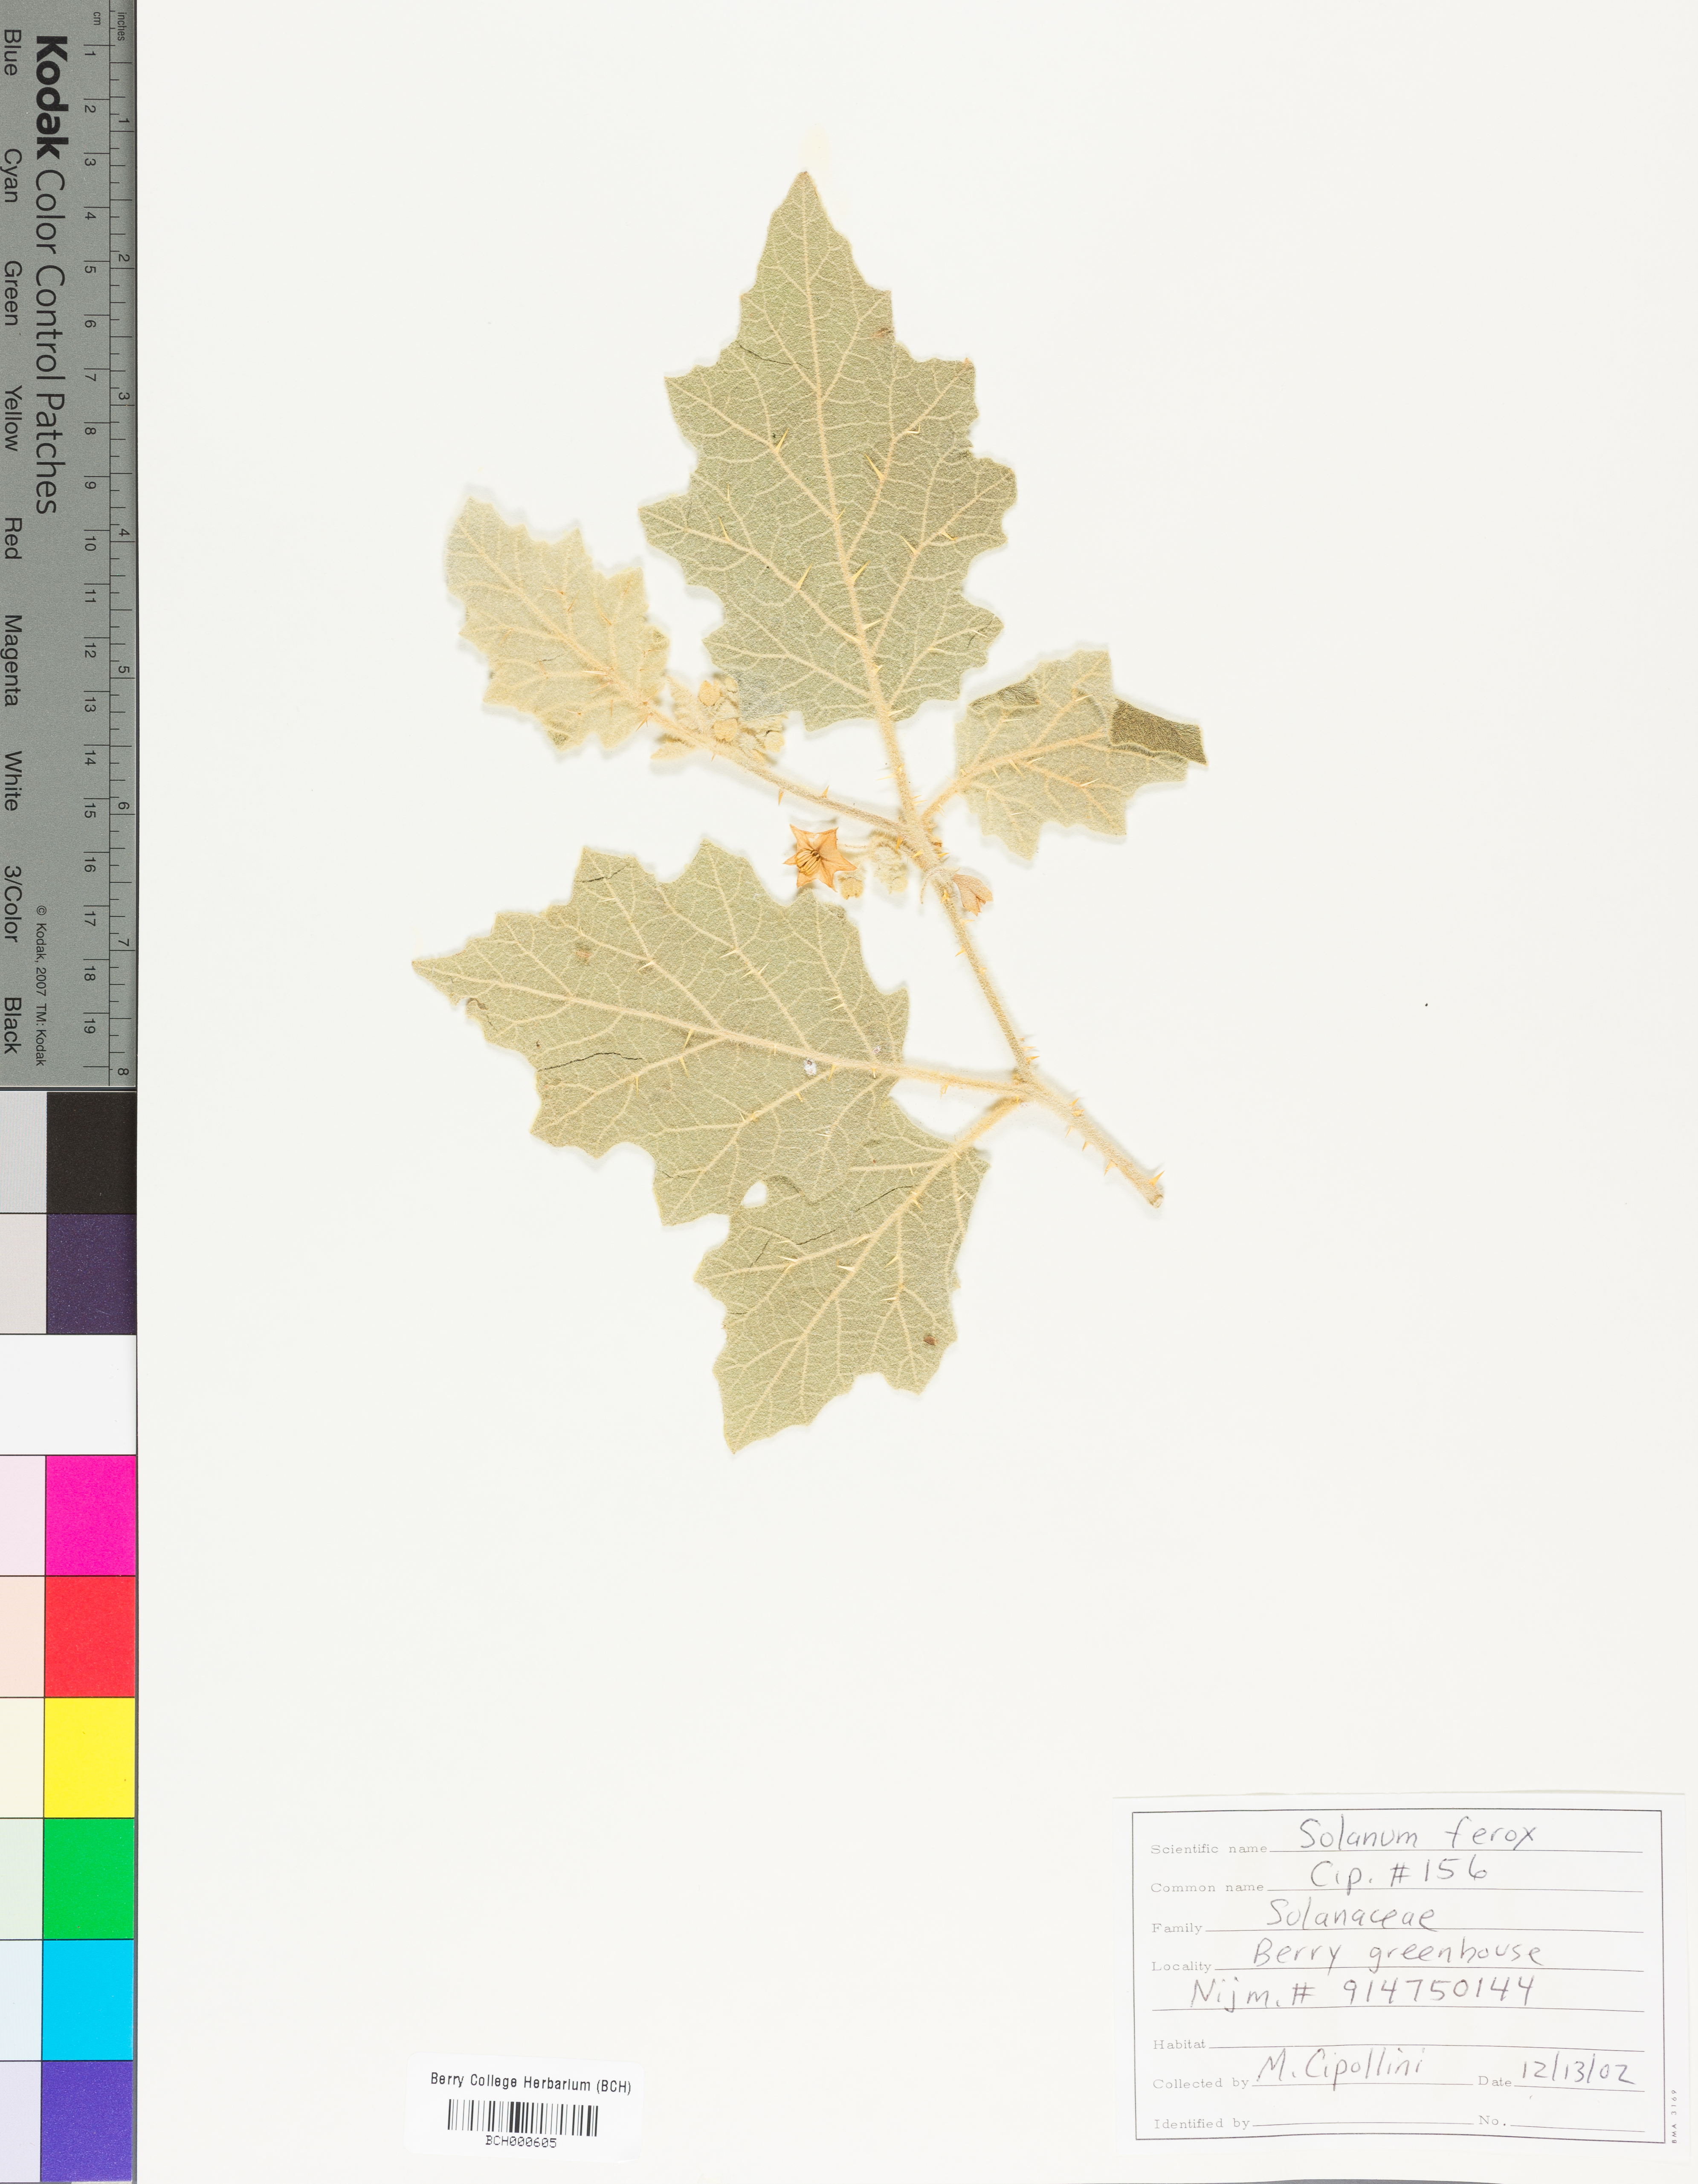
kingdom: Plantae
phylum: Tracheophyta
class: Magnoliopsida
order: Solanales
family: Solanaceae
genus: Solanum
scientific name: Solanum
